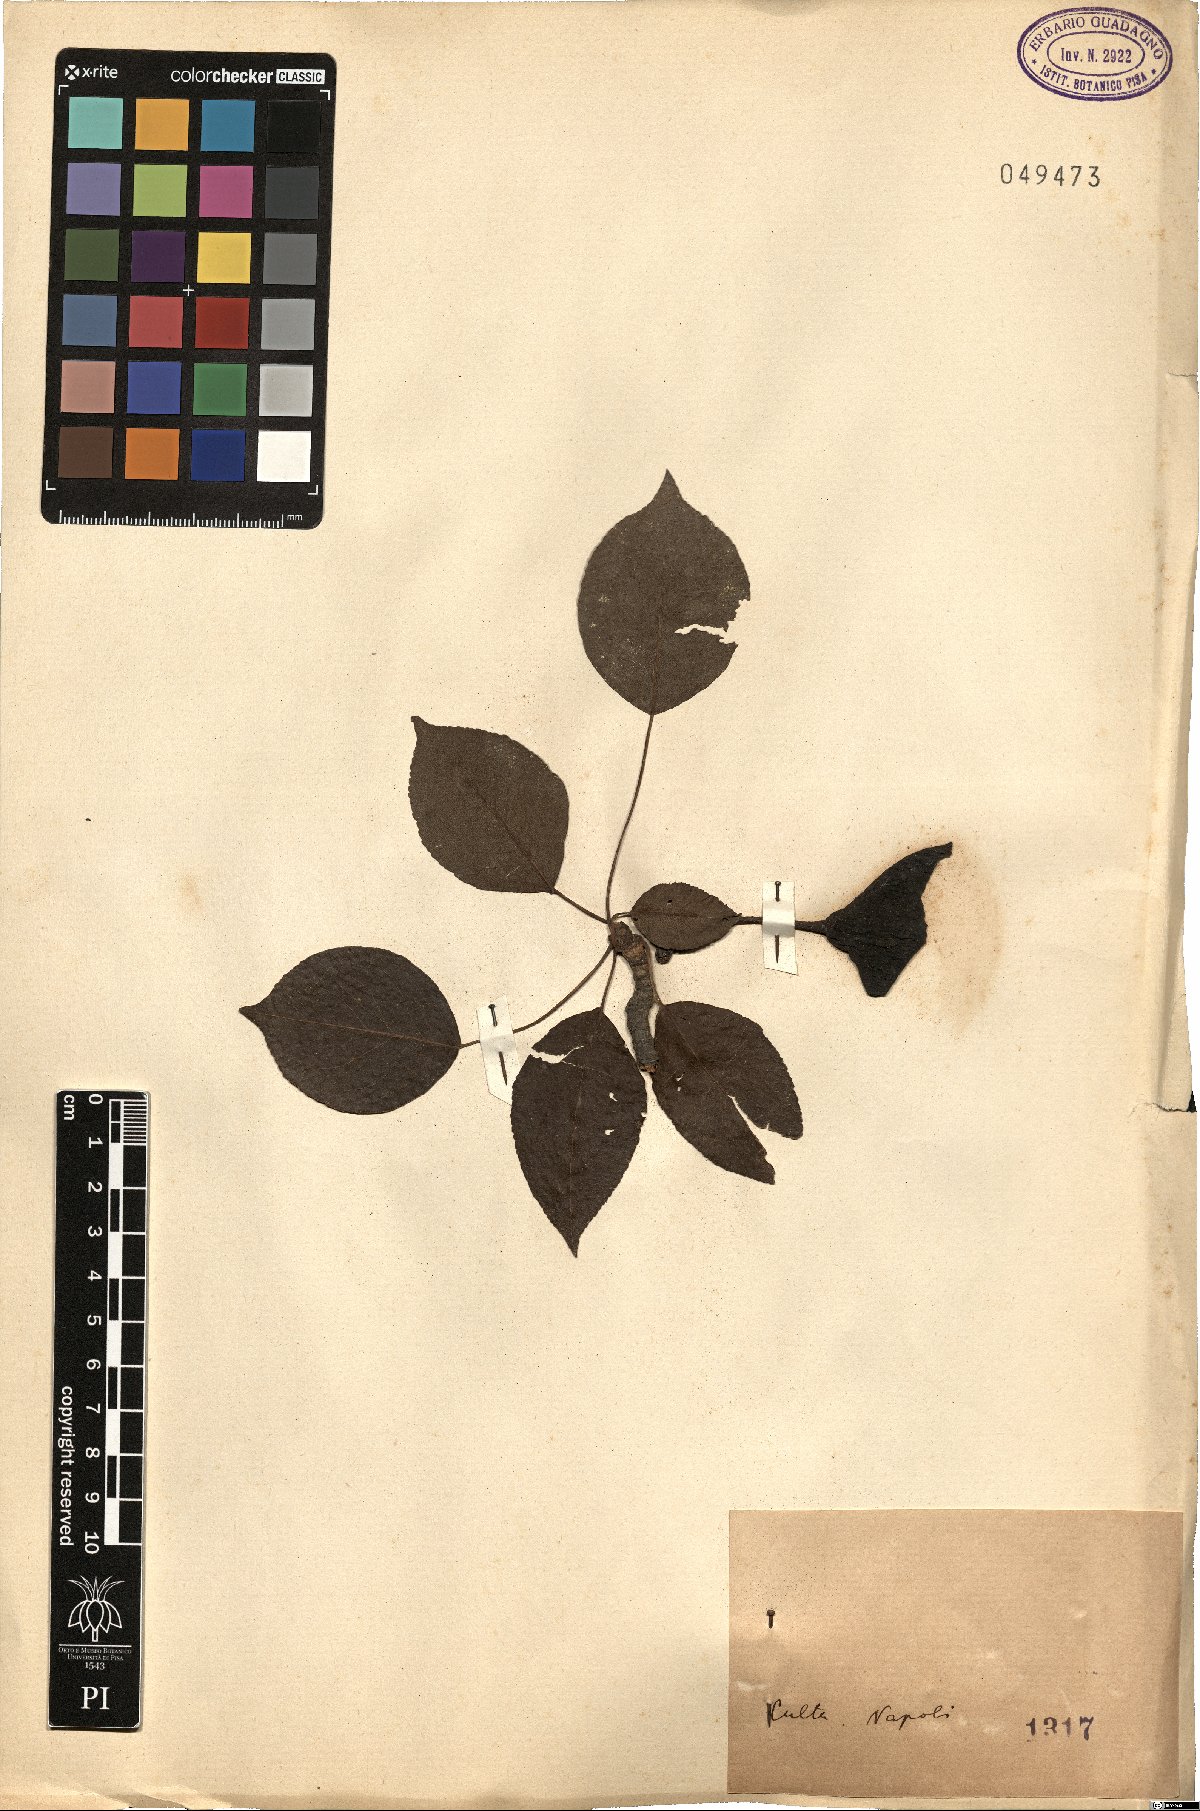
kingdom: Plantae
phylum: Tracheophyta
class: Magnoliopsida
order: Rosales
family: Rosaceae
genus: Pyrus
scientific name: Pyrus
